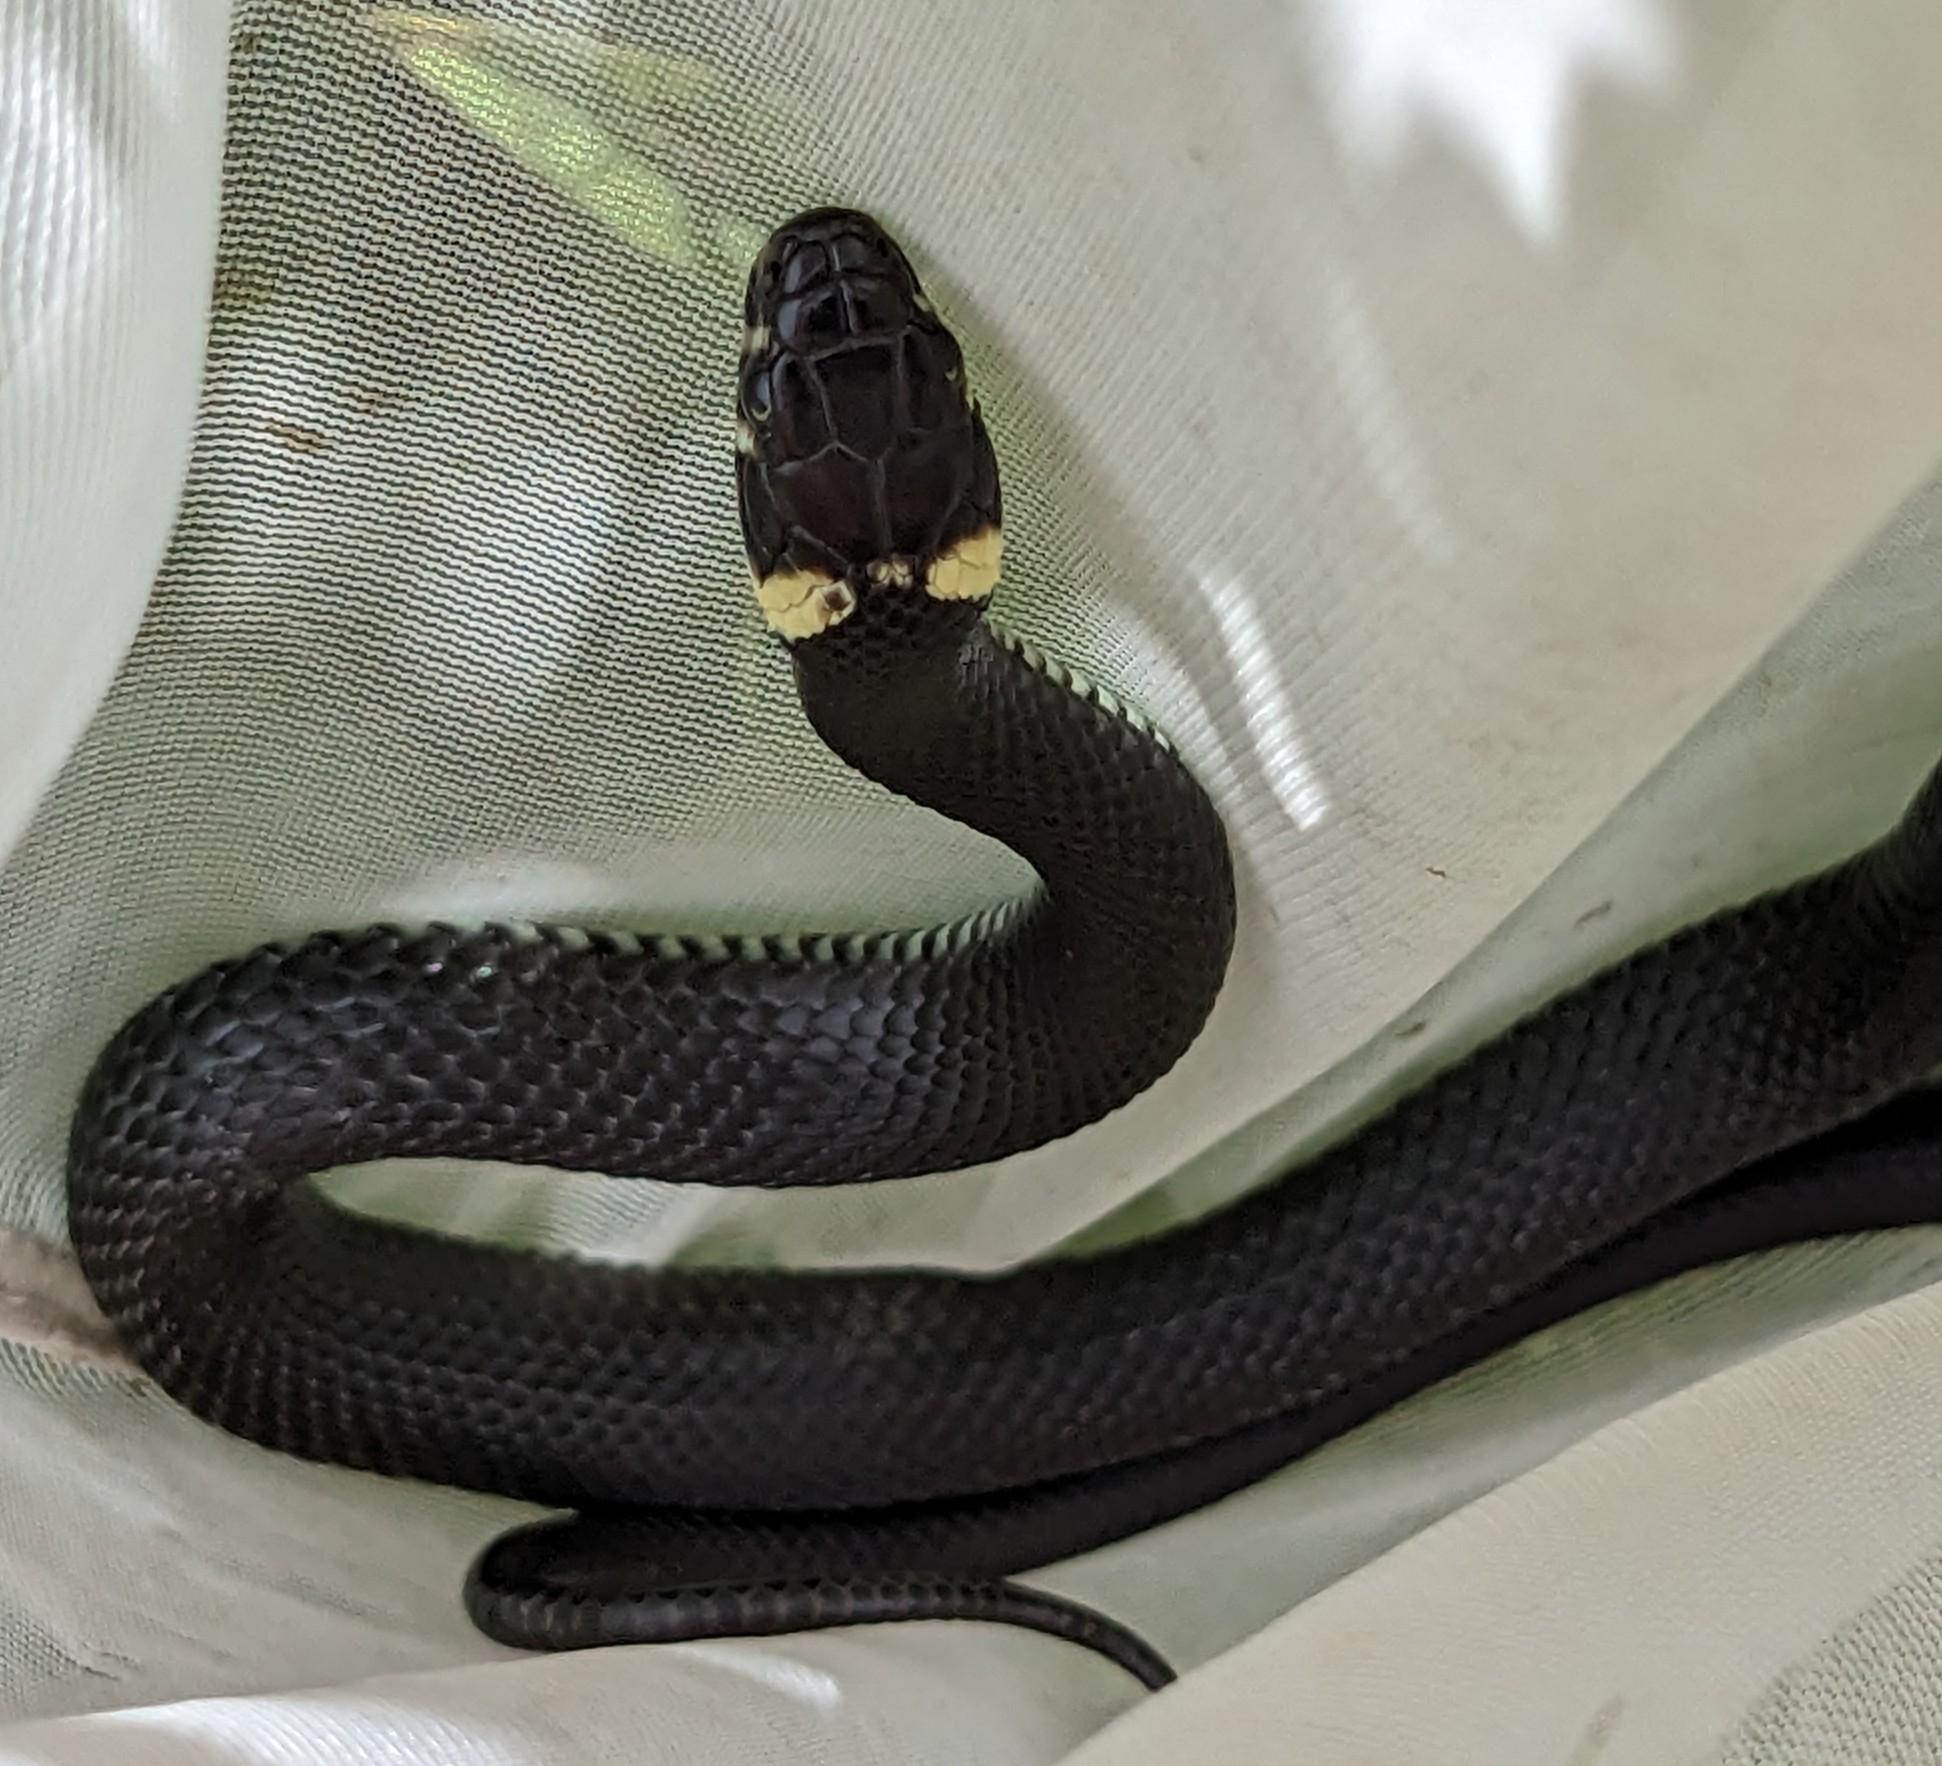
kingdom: Animalia
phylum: Chordata
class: Squamata
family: Colubridae
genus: Natrix
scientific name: Natrix natrix
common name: Snog
